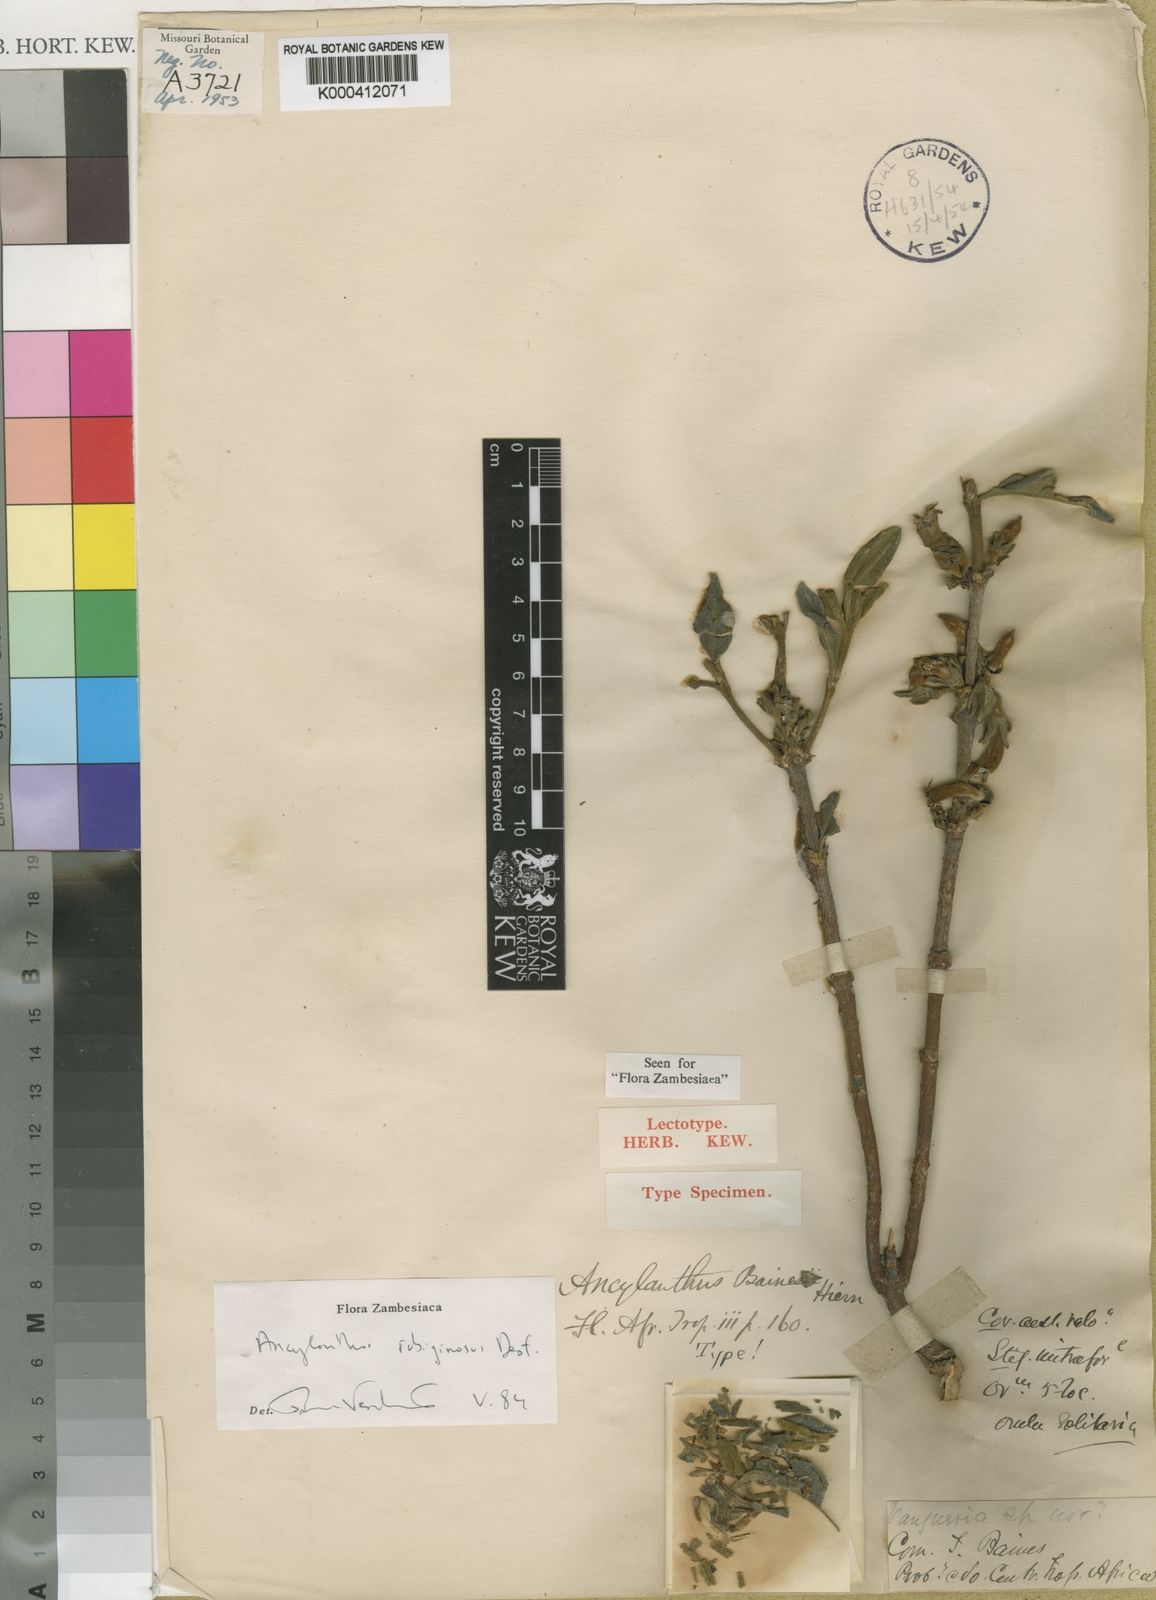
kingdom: Plantae
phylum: Tracheophyta
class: Magnoliopsida
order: Gentianales
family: Rubiaceae
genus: Vangueria
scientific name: Vangueria ferruginea
